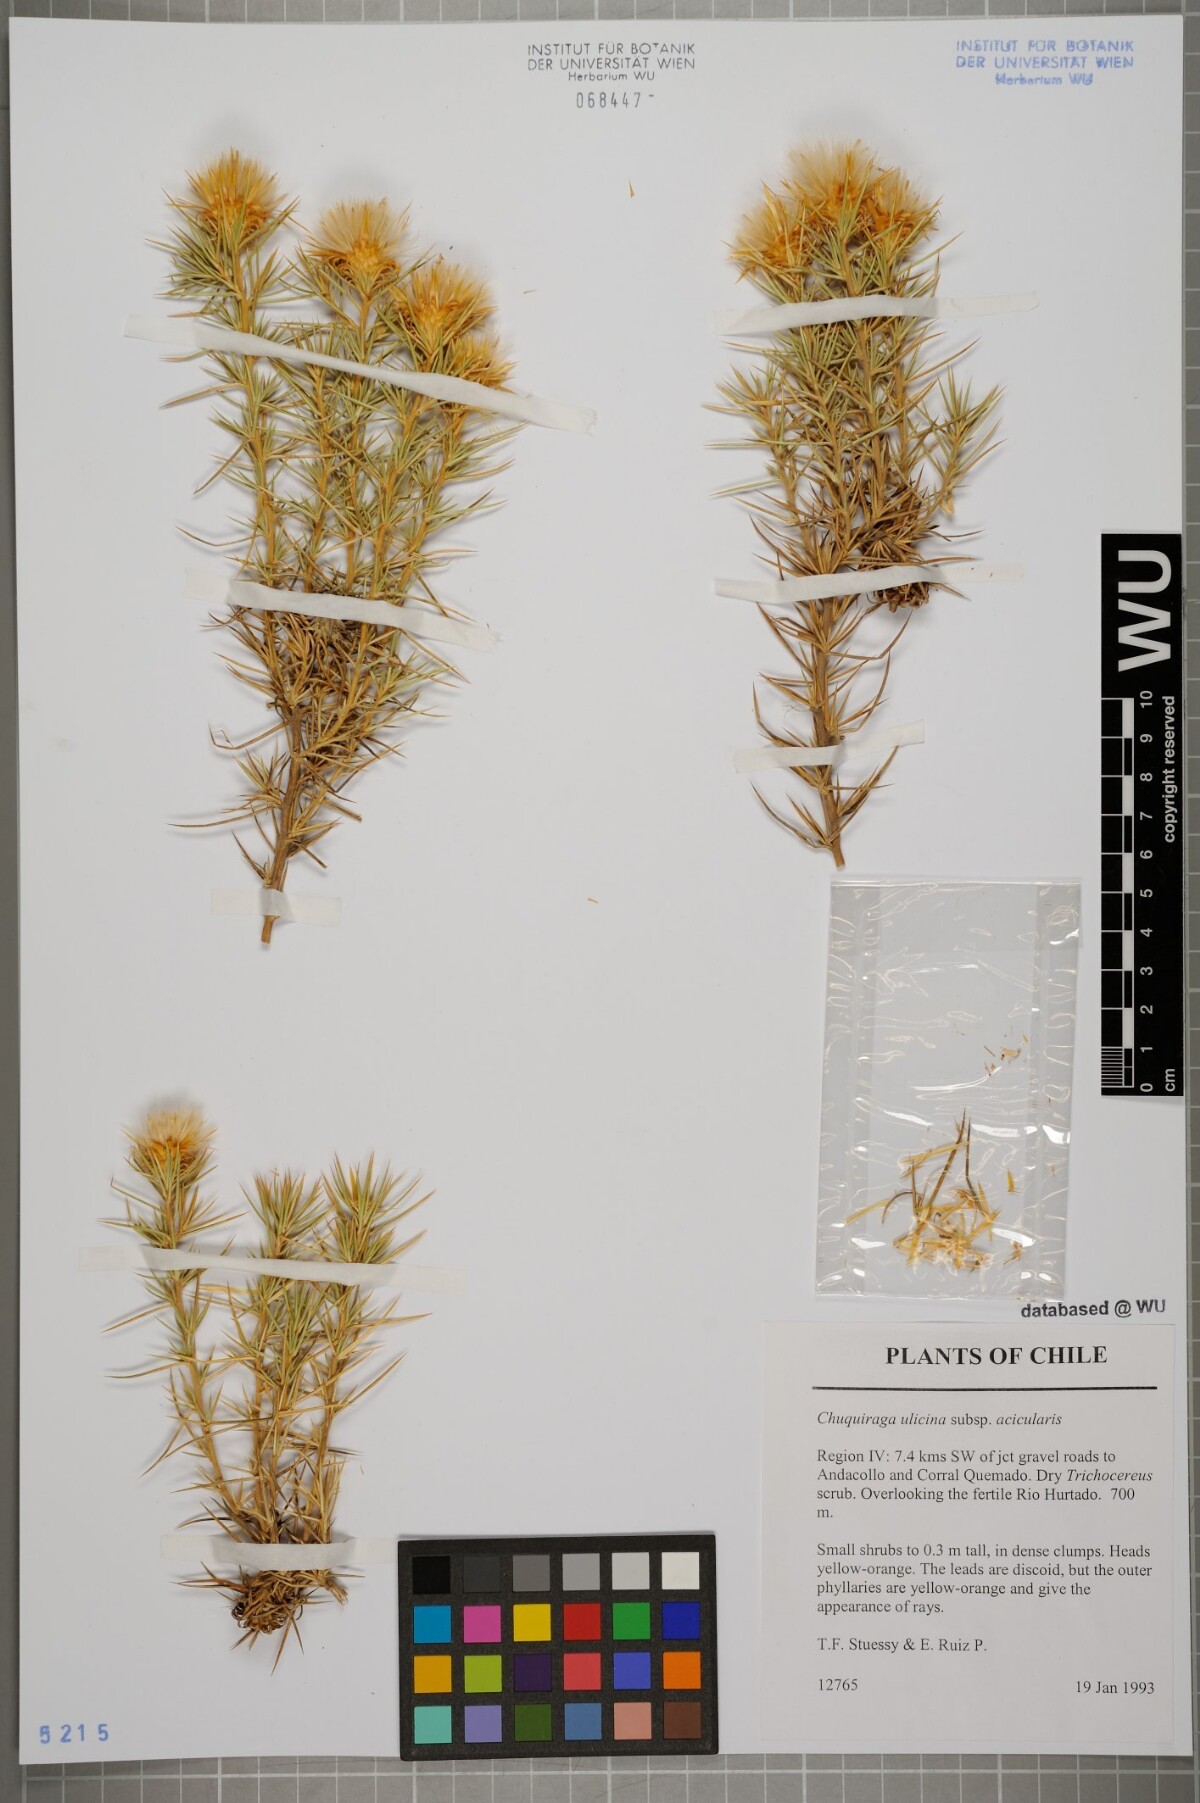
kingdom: Plantae
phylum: Tracheophyta
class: Magnoliopsida
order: Asterales
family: Asteraceae
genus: Chuquiraga
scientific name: Chuquiraga ulicina
